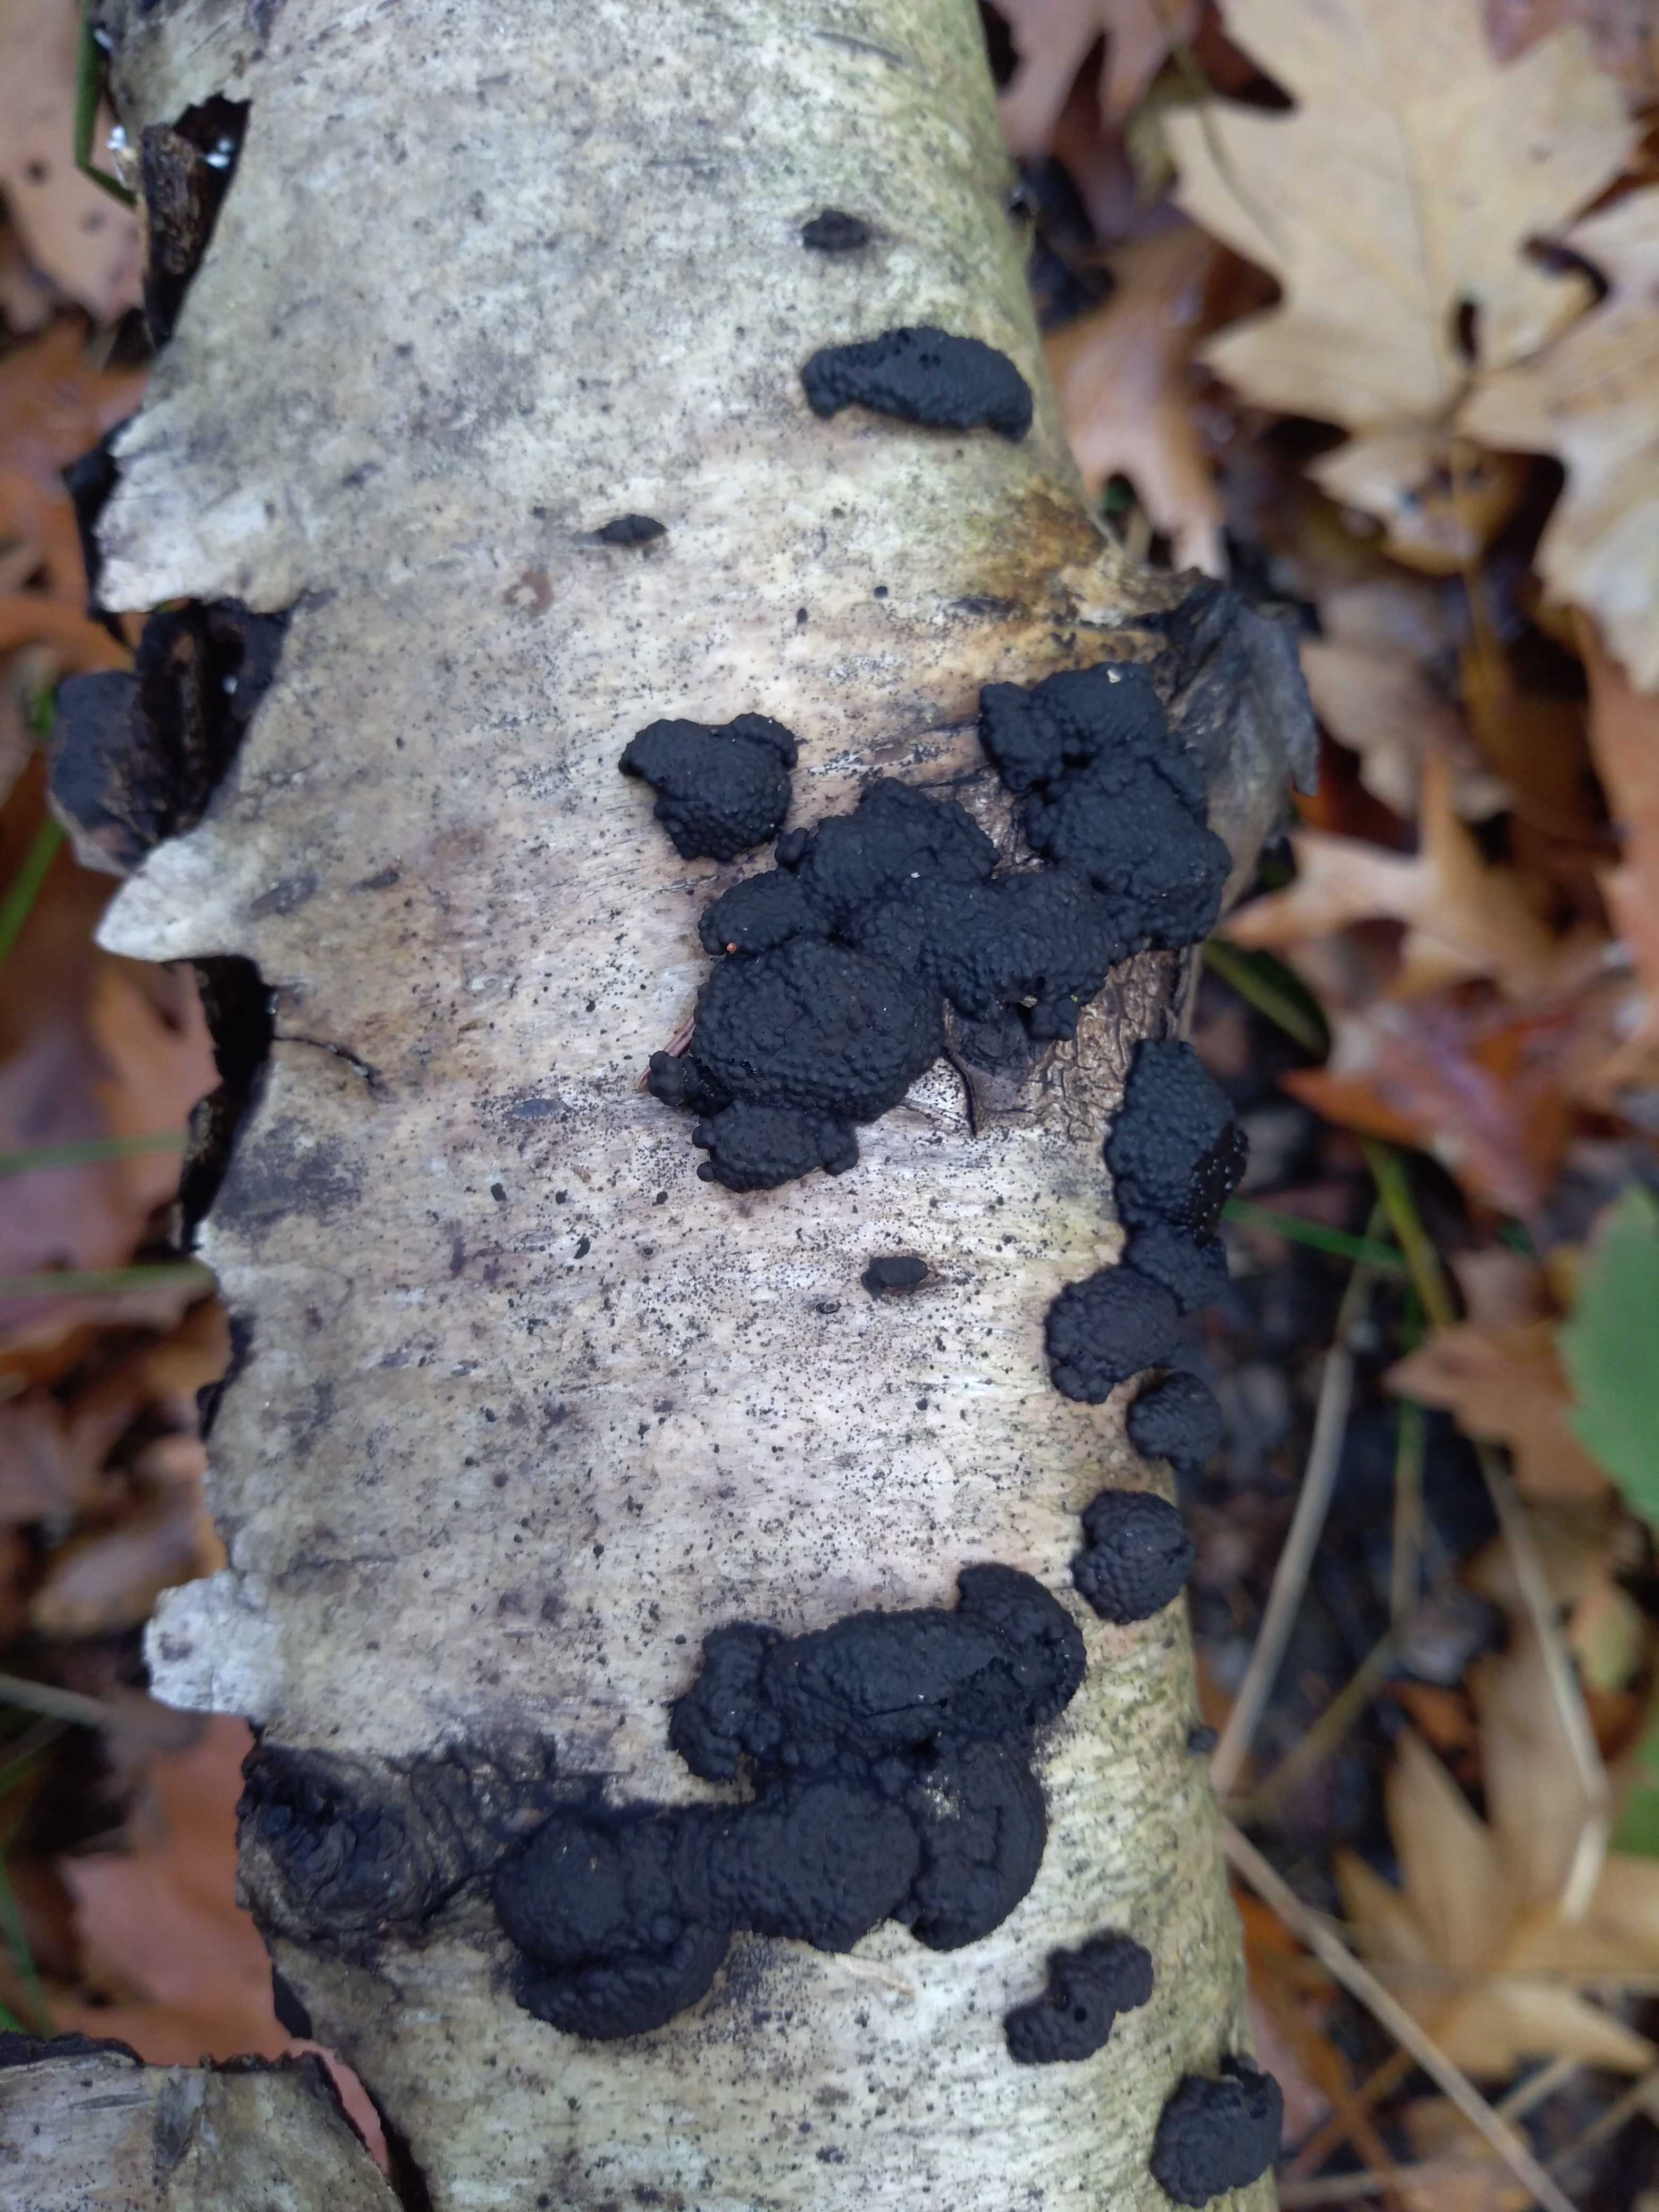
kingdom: Fungi
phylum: Ascomycota
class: Sordariomycetes
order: Xylariales
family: Hypoxylaceae
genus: Jackrogersella
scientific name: Jackrogersella multiformis
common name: foranderlig kulbær
